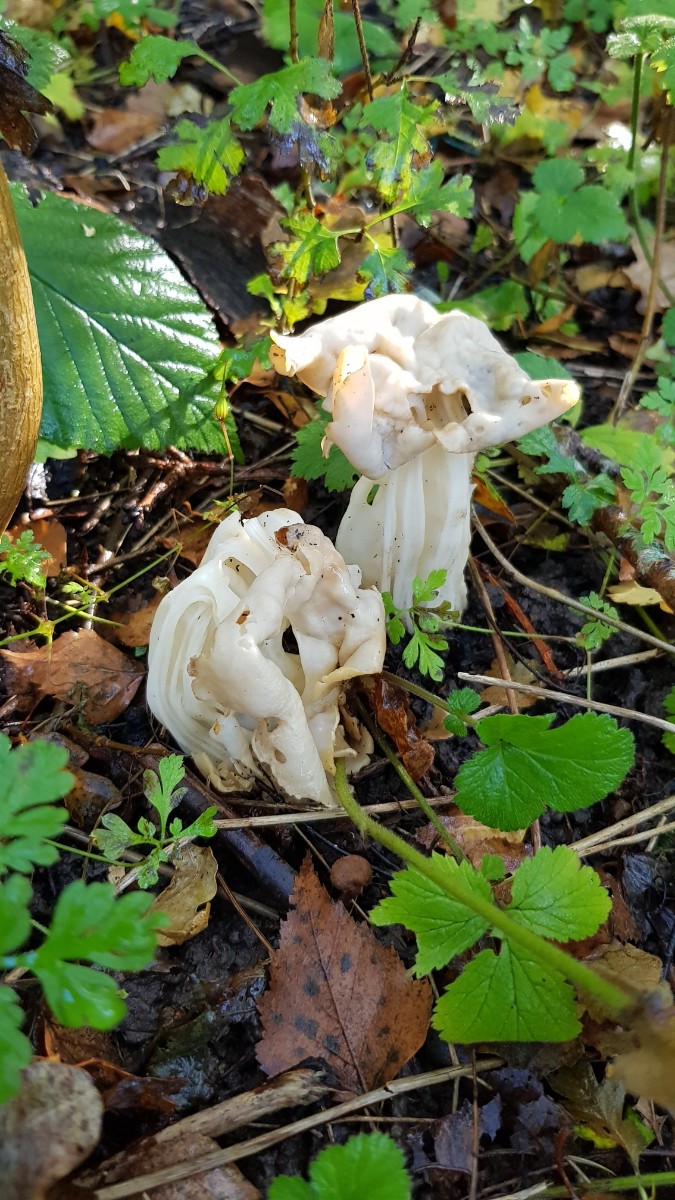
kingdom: Fungi
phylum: Ascomycota
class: Pezizomycetes
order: Pezizales
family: Helvellaceae
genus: Helvella
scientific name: Helvella crispa
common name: kruset foldhat
